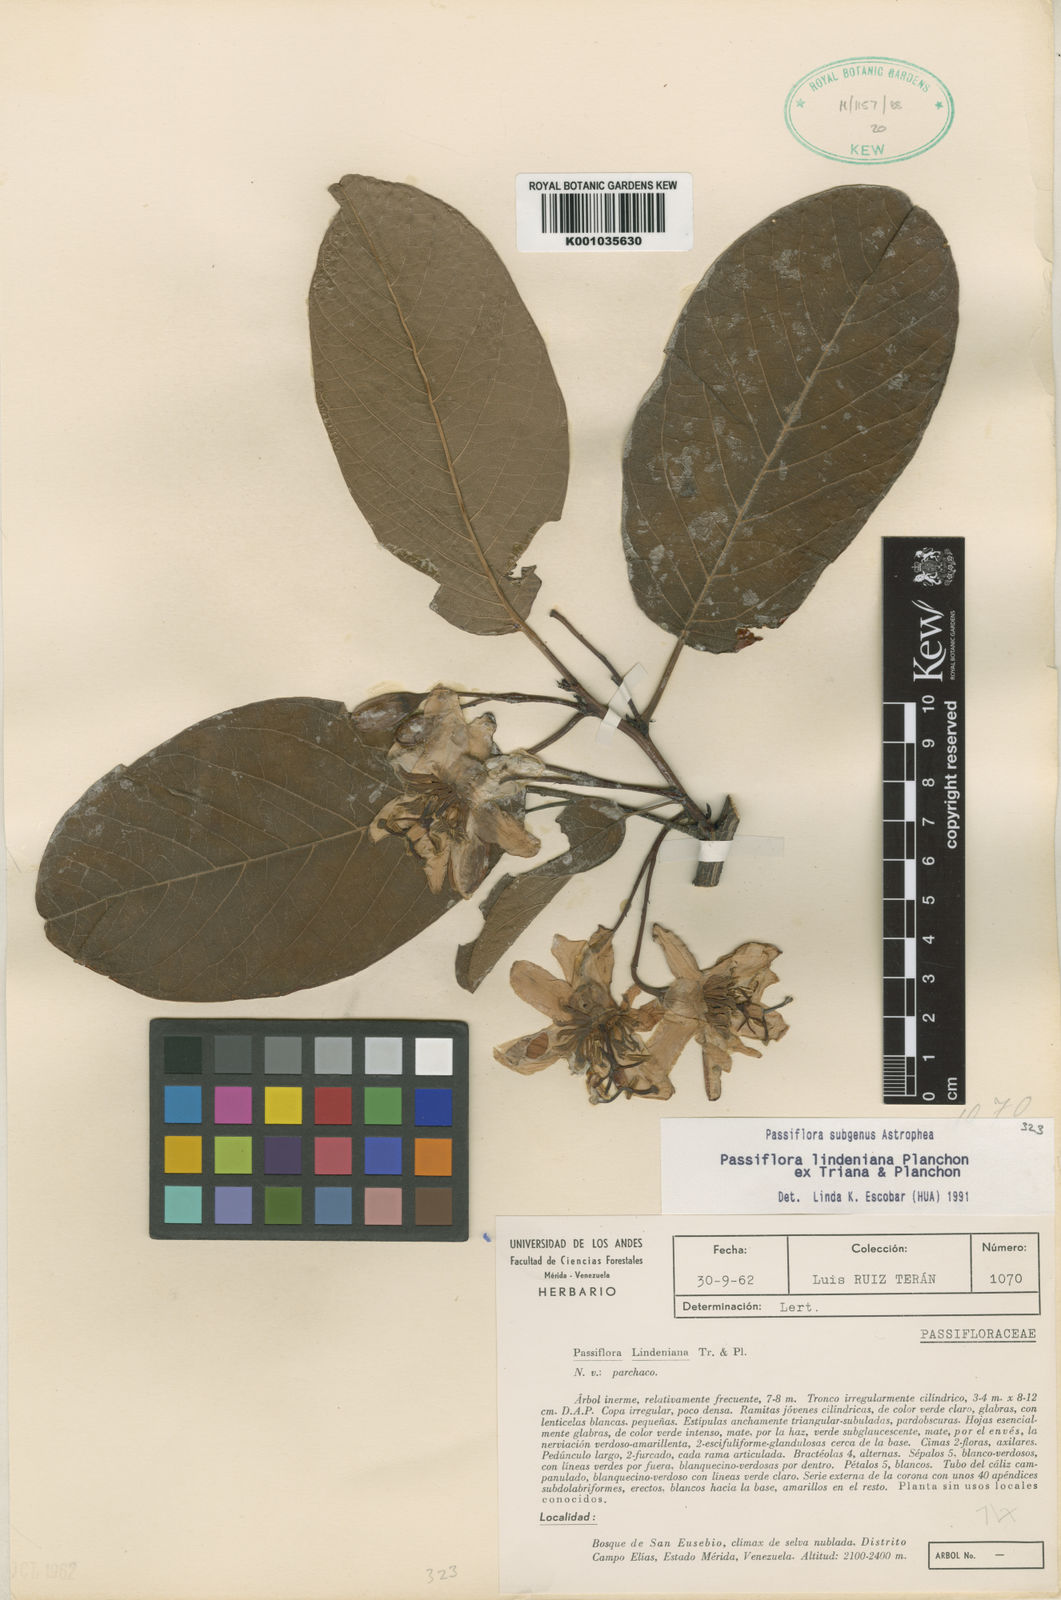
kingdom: Plantae
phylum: Tracheophyta
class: Magnoliopsida
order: Malpighiales
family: Passifloraceae
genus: Passiflora
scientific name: Passiflora lindeniana
